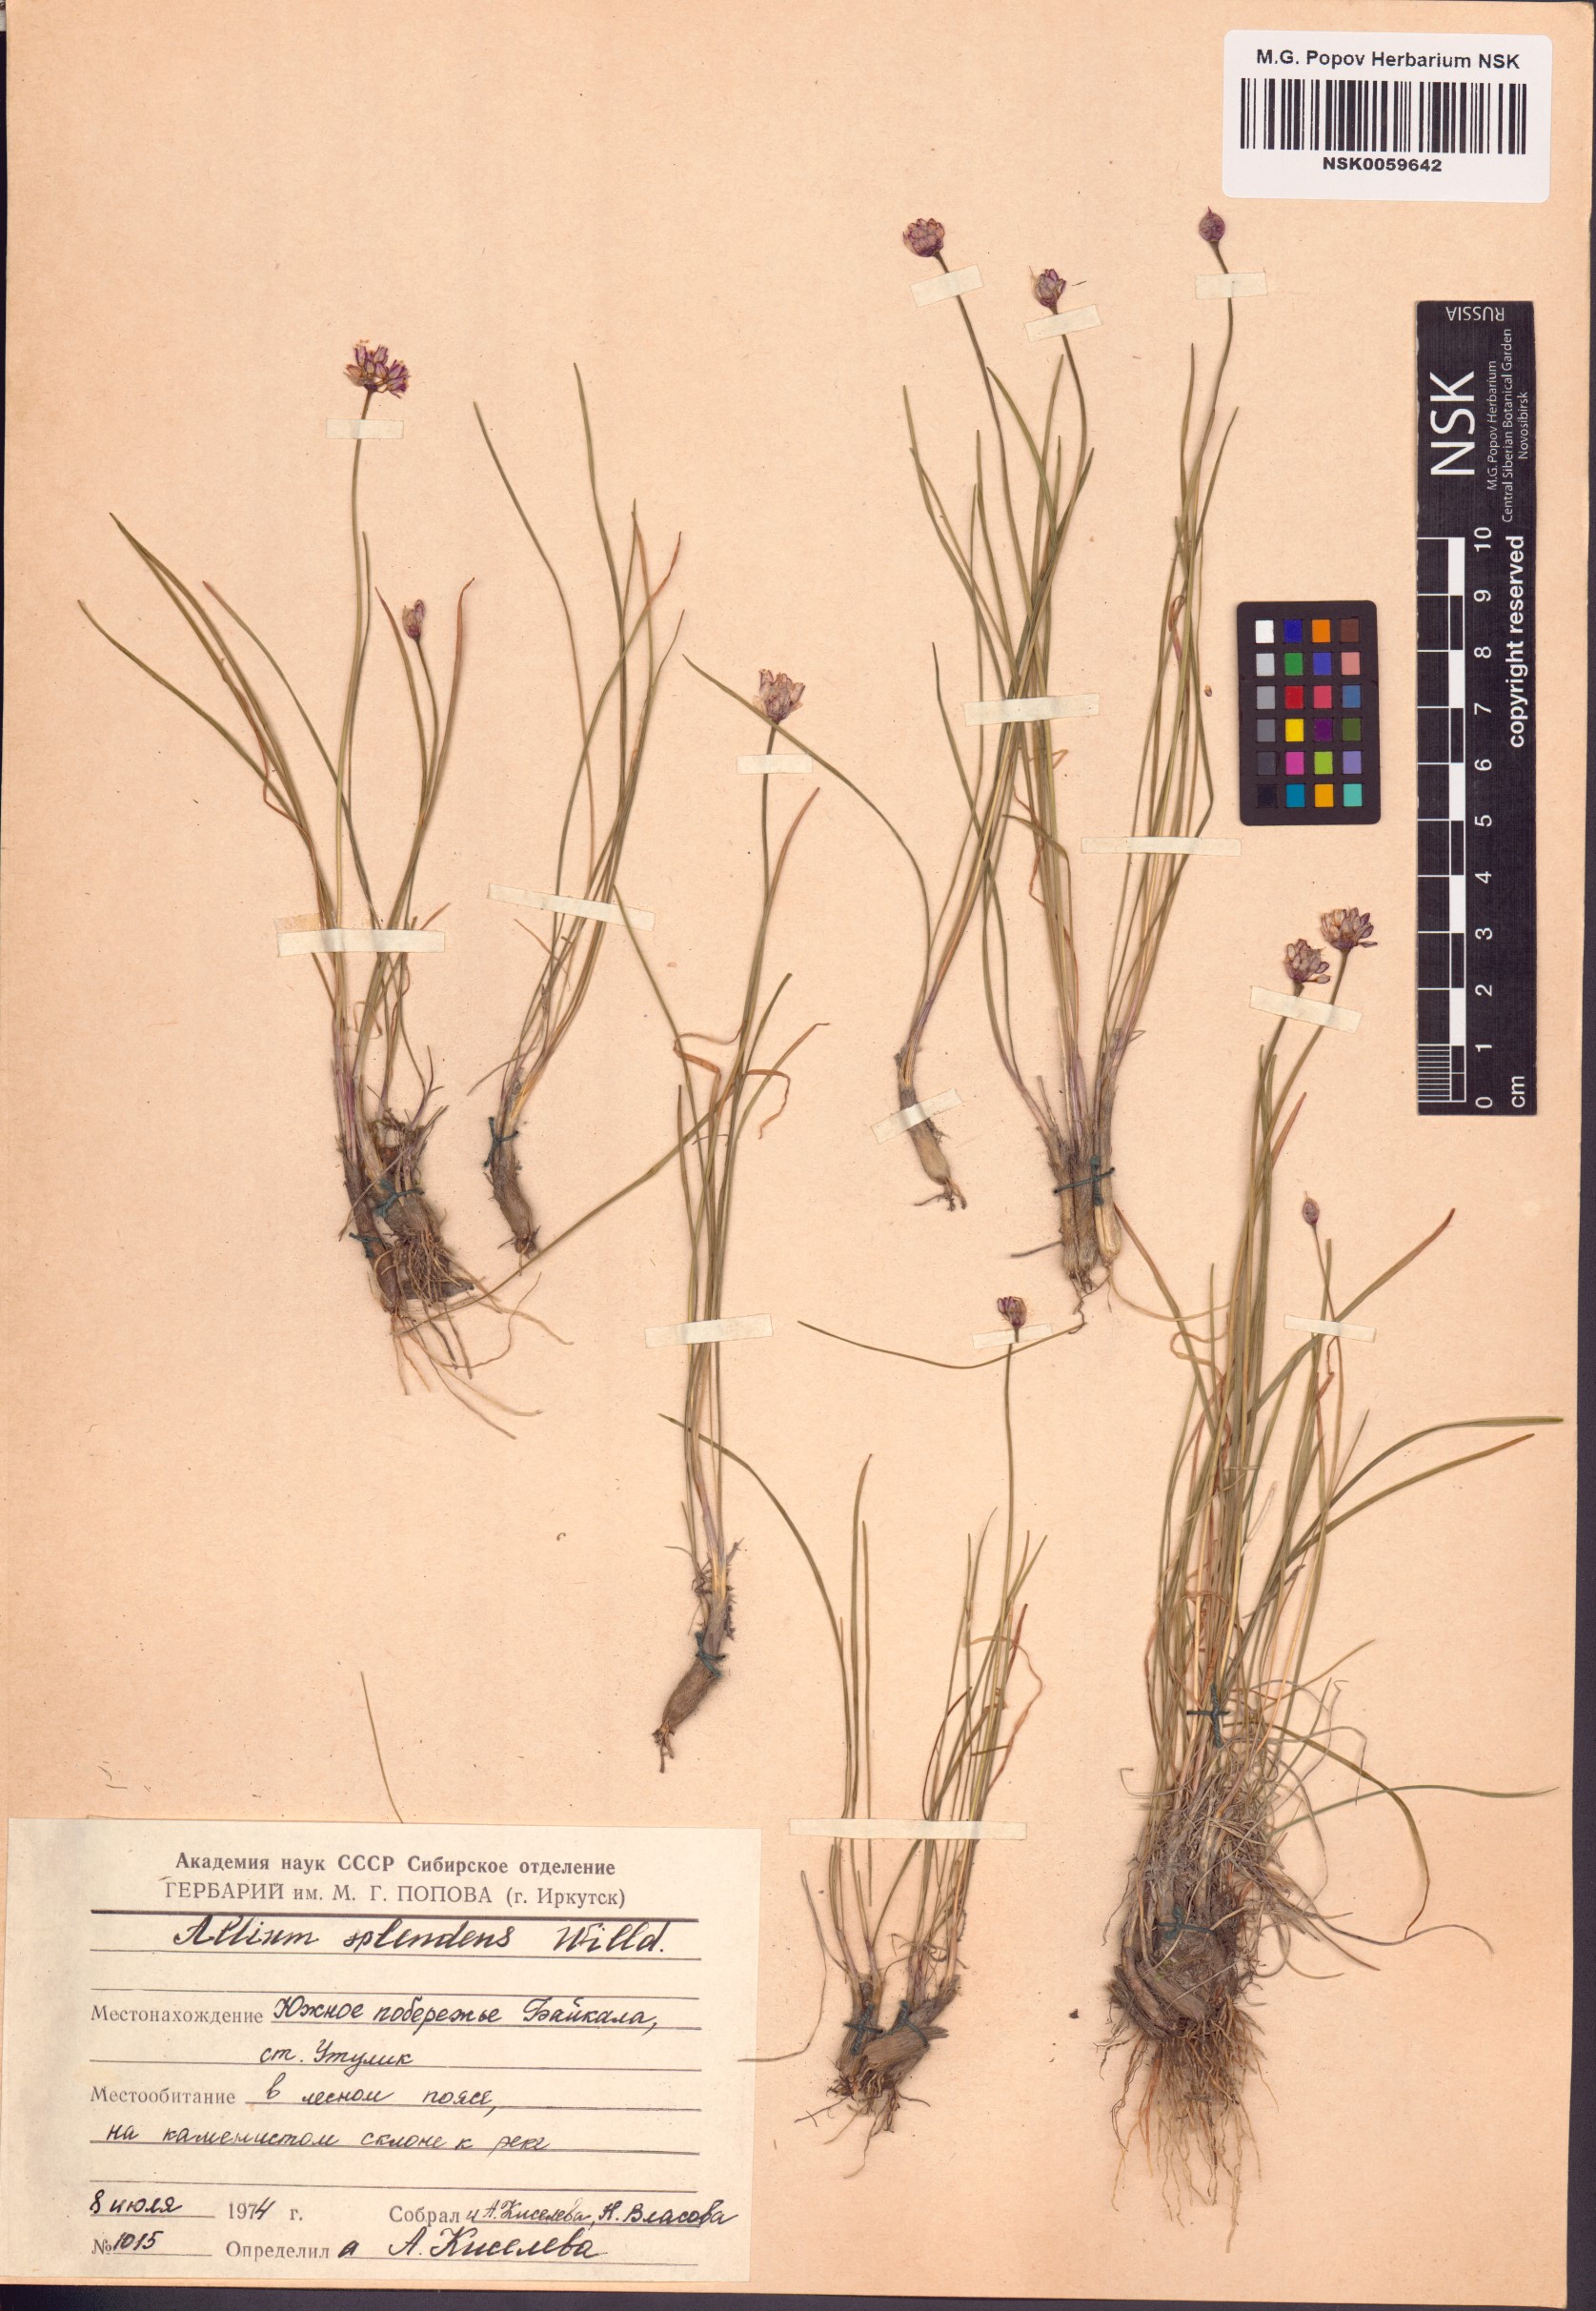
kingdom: Plantae
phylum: Tracheophyta
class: Liliopsida
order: Asparagales
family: Amaryllidaceae
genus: Allium
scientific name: Allium splendens
